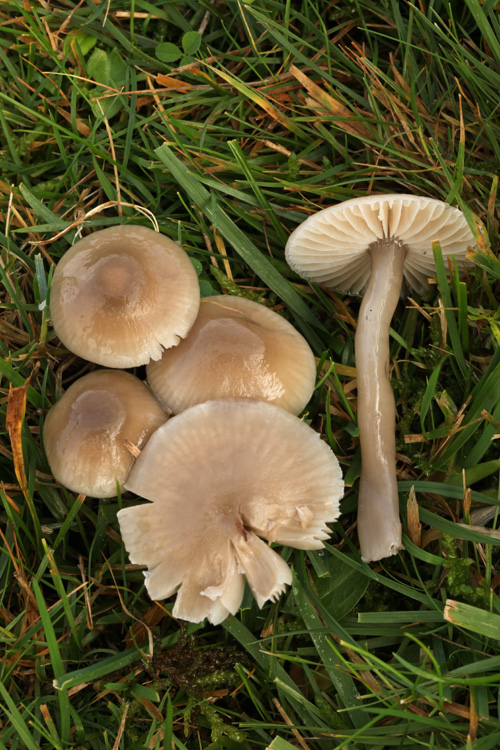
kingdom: Fungi
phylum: Basidiomycota
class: Agaricomycetes
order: Agaricales
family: Hygrophoraceae
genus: Gliophorus
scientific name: Gliophorus irrigatus
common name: slimet vokshat
